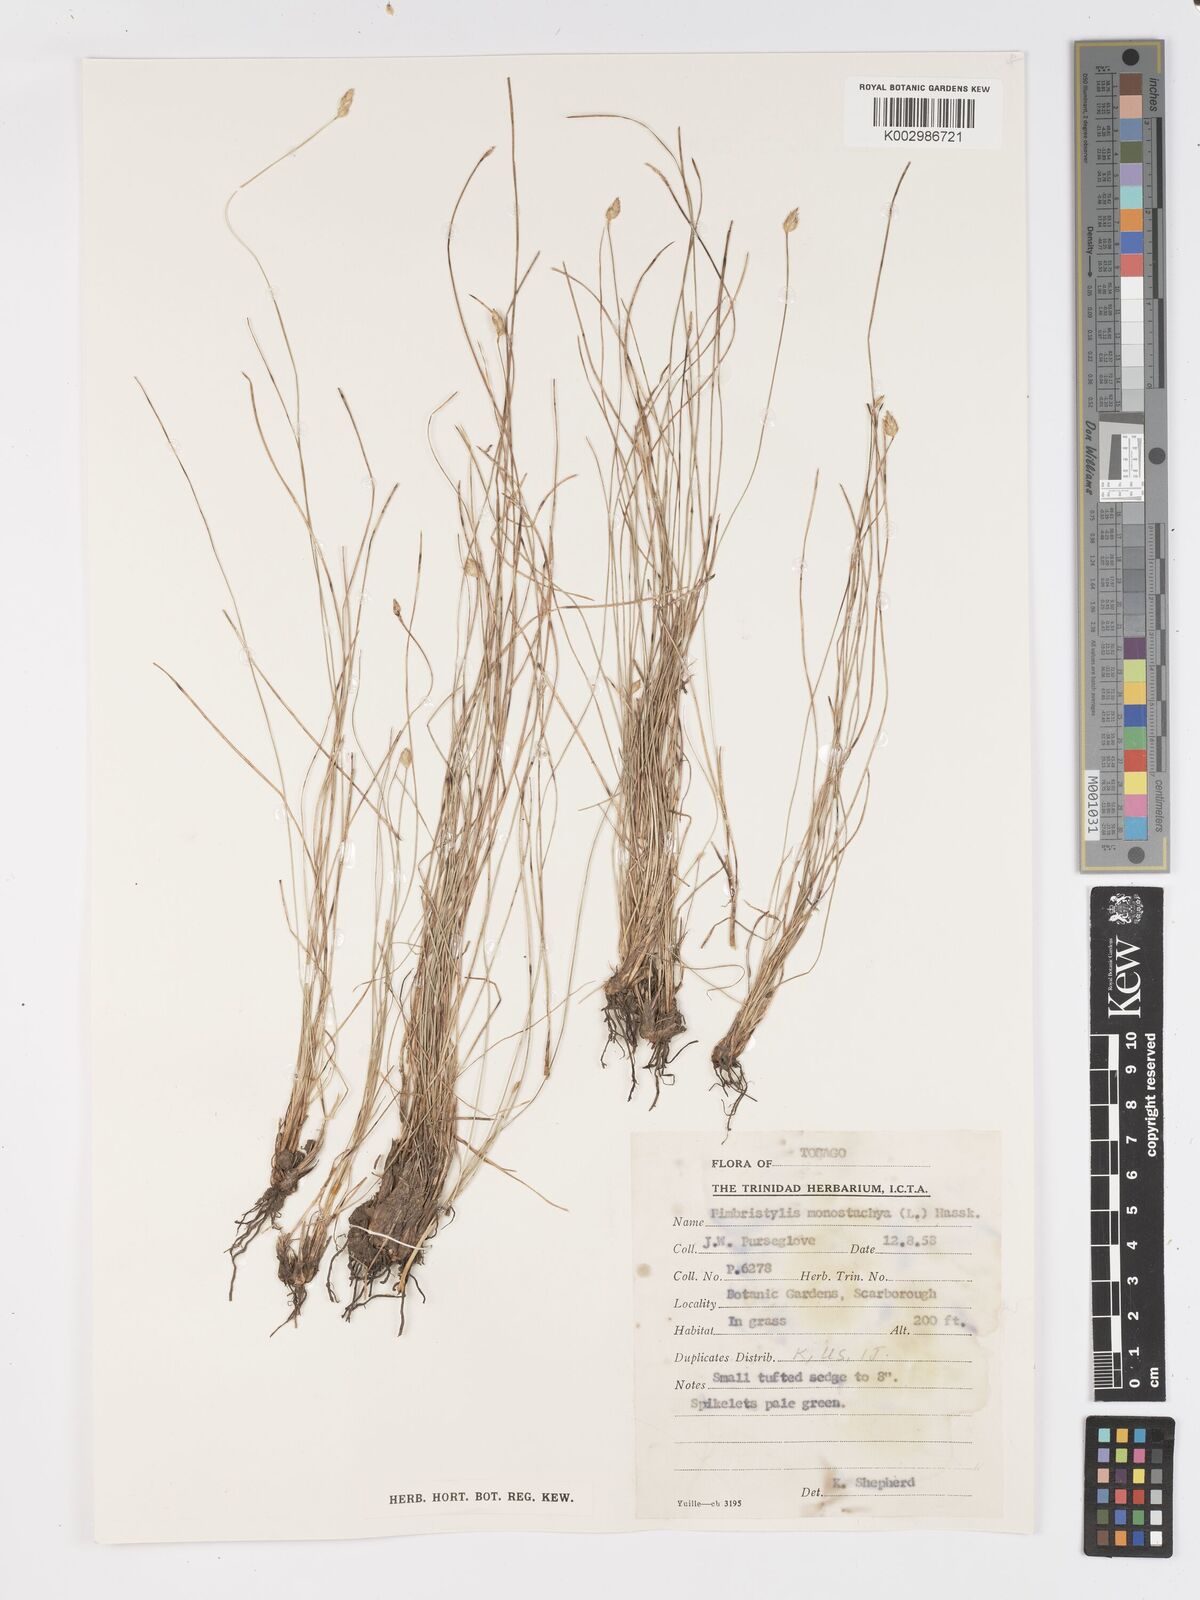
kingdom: Plantae
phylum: Tracheophyta
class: Liliopsida
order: Poales
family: Cyperaceae
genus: Fimbristylis
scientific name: Fimbristylis
